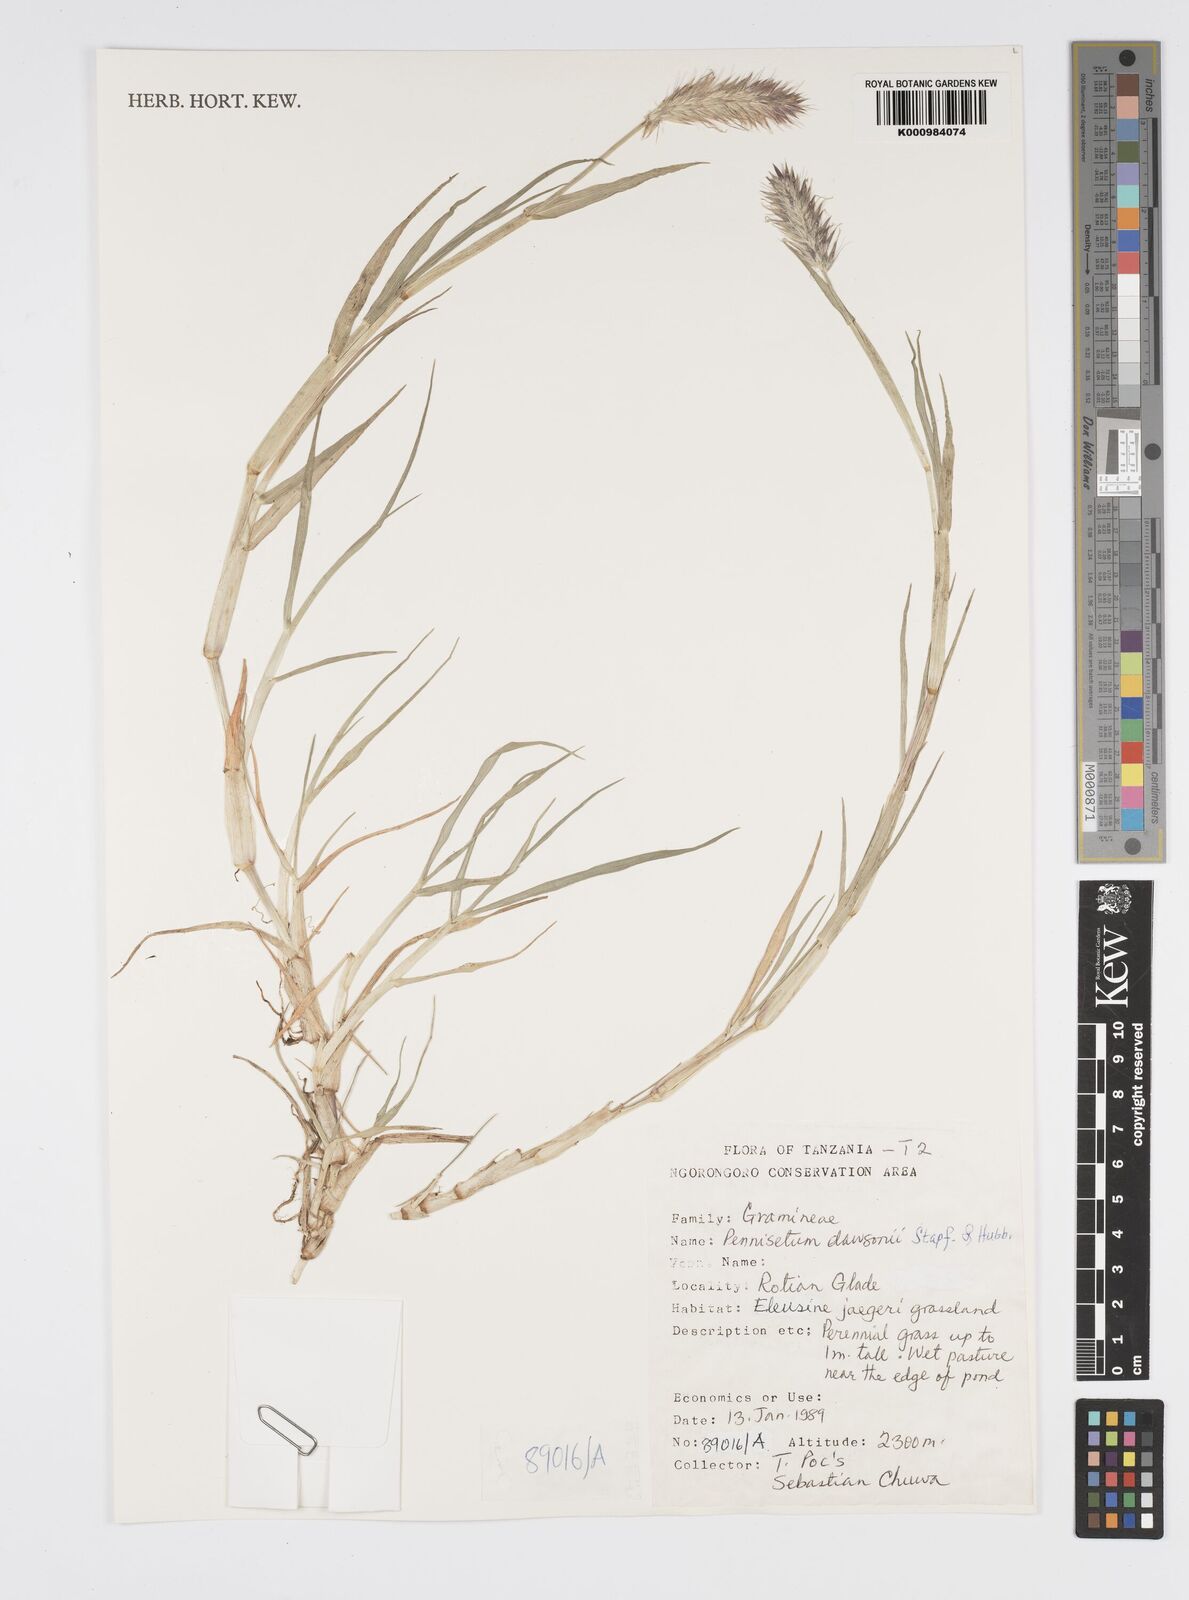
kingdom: Plantae
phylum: Tracheophyta
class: Liliopsida
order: Poales
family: Poaceae
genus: Cenchrus
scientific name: Cenchrus riparius
